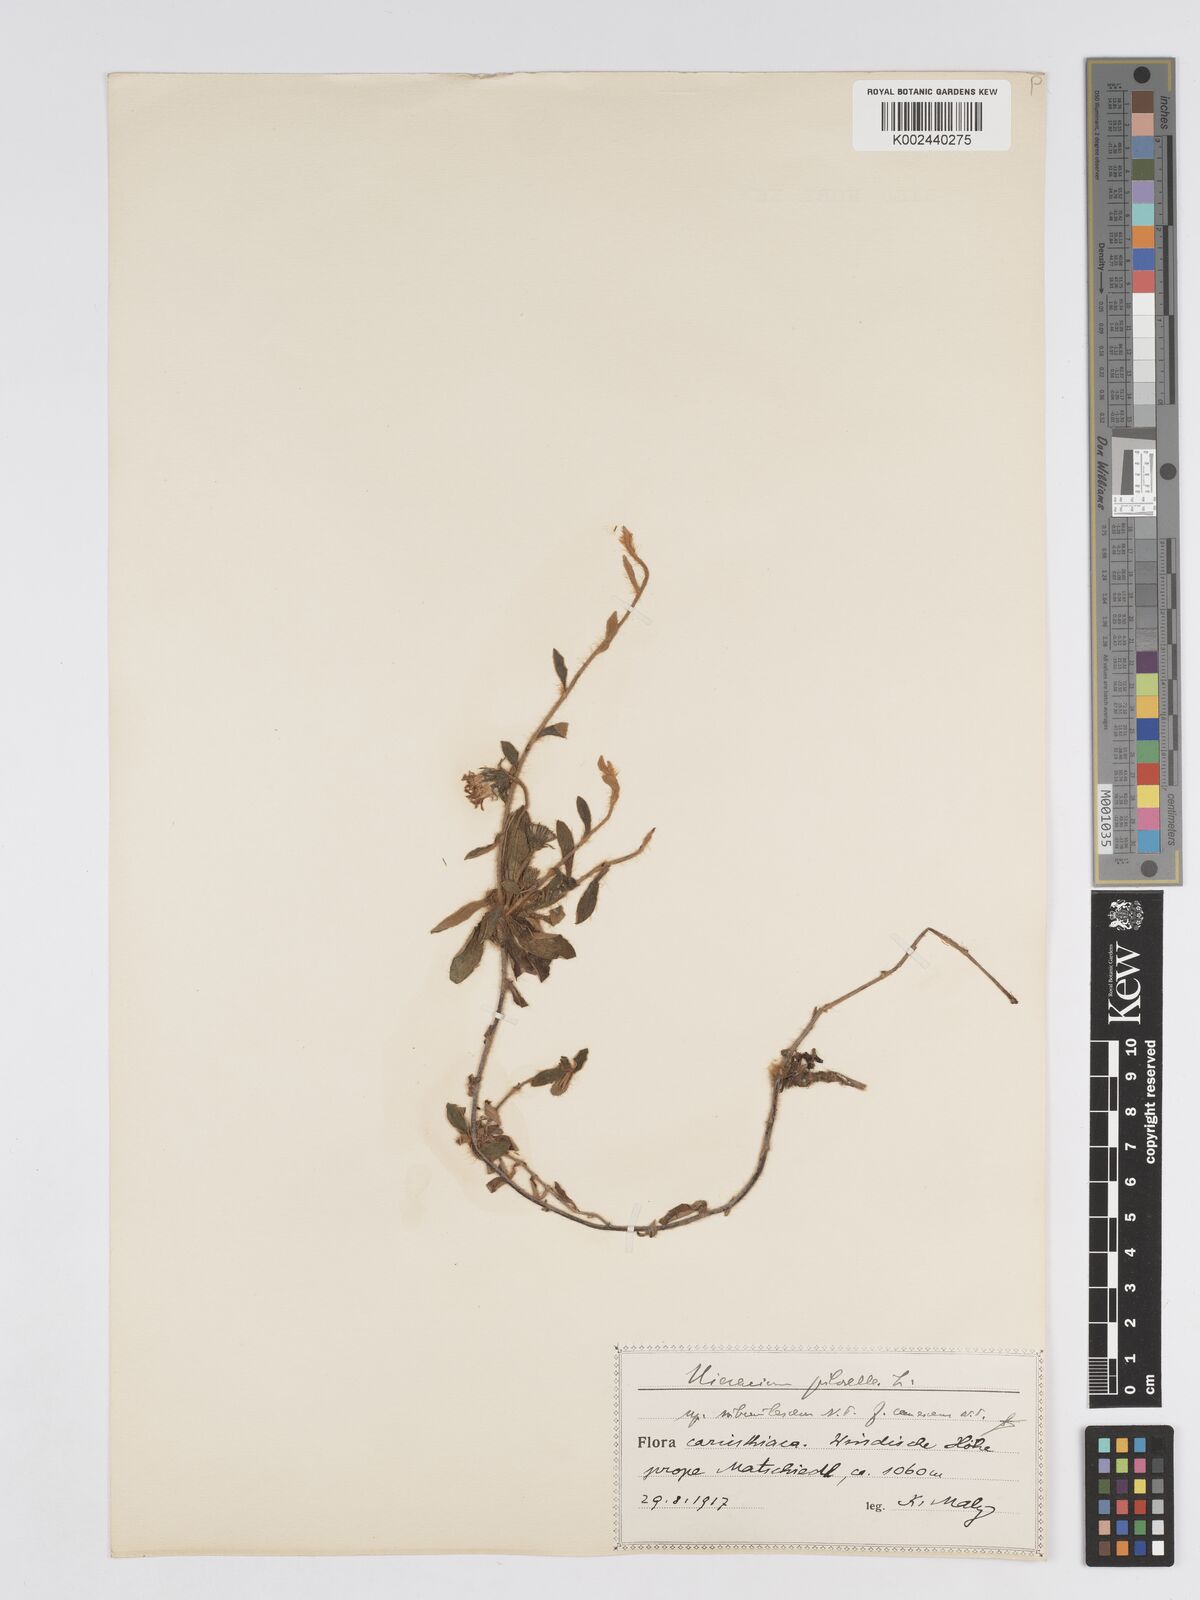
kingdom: Plantae
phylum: Tracheophyta
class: Magnoliopsida
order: Asterales
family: Asteraceae
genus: Hieracium
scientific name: Hieracium subvirescens
